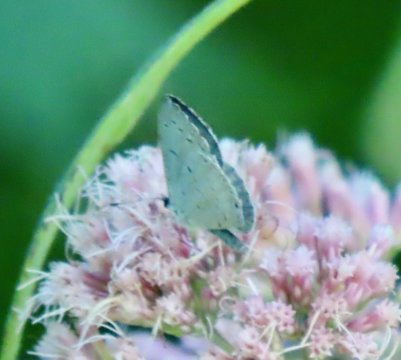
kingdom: Animalia
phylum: Arthropoda
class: Insecta
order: Lepidoptera
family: Lycaenidae
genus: Cyaniris
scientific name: Cyaniris neglecta
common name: Summer Azure
